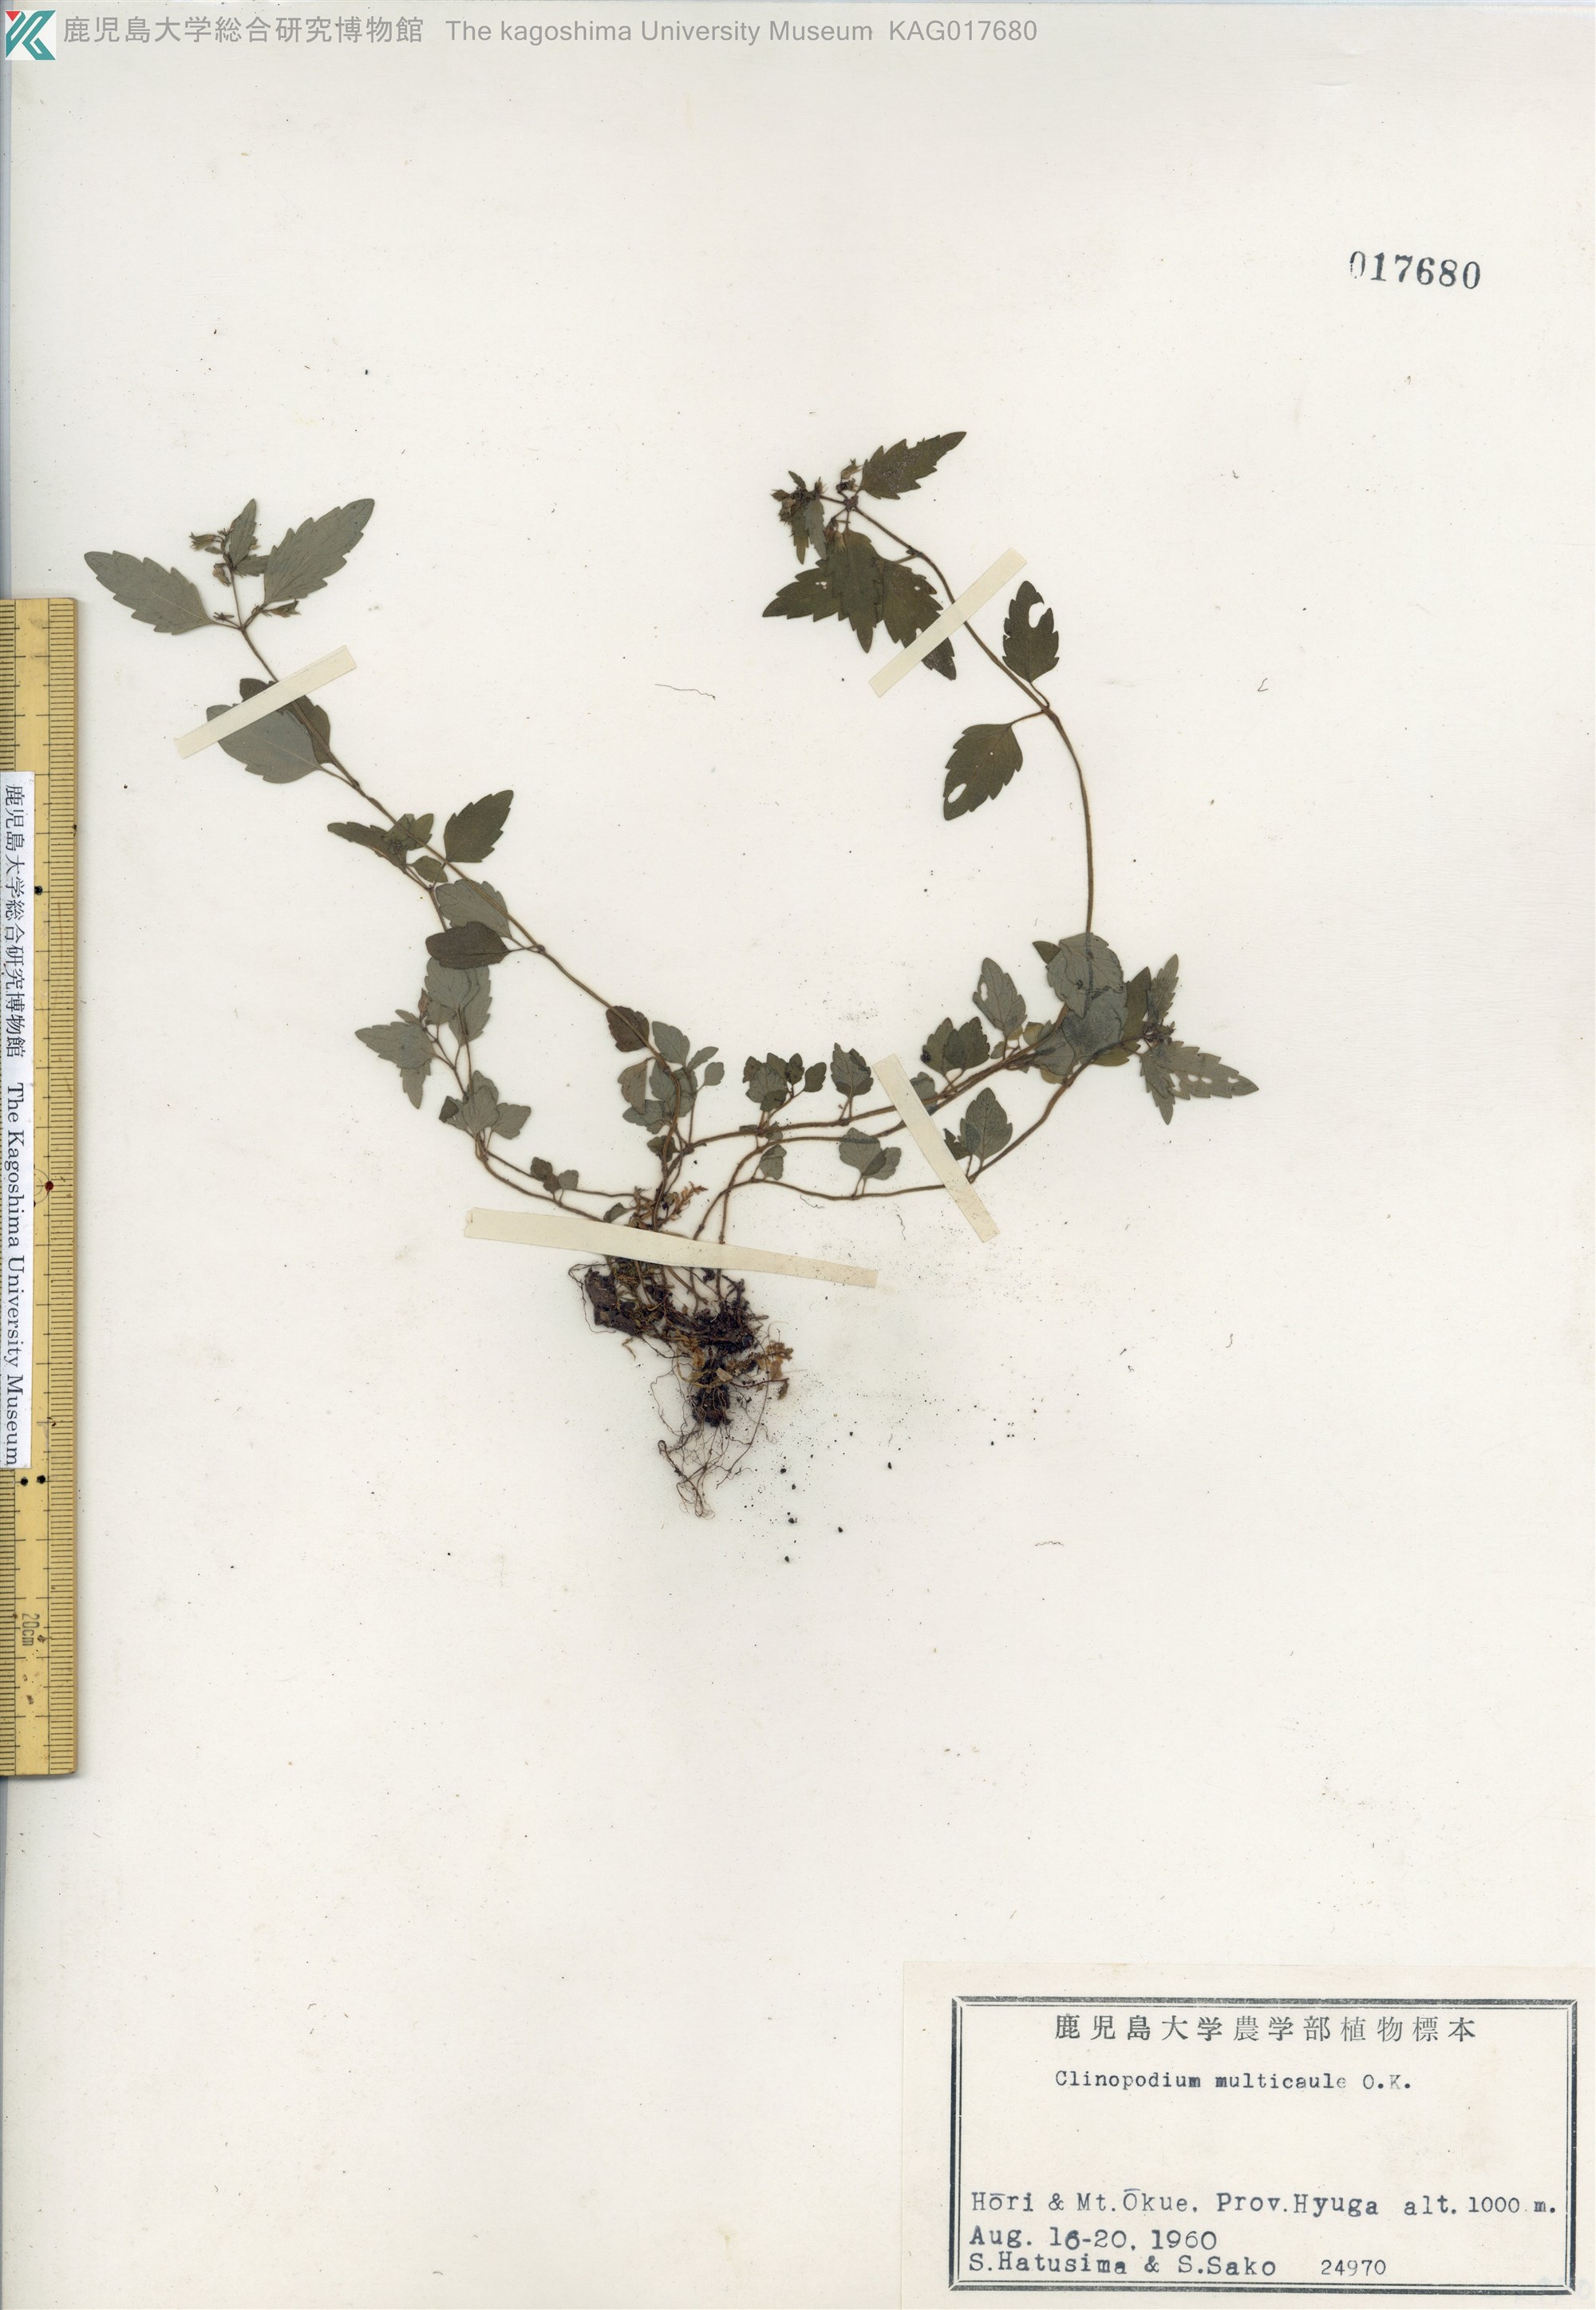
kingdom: Plantae
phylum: Tracheophyta
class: Magnoliopsida
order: Lamiales
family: Lamiaceae
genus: Clinopodium
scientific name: Clinopodium multicaule
